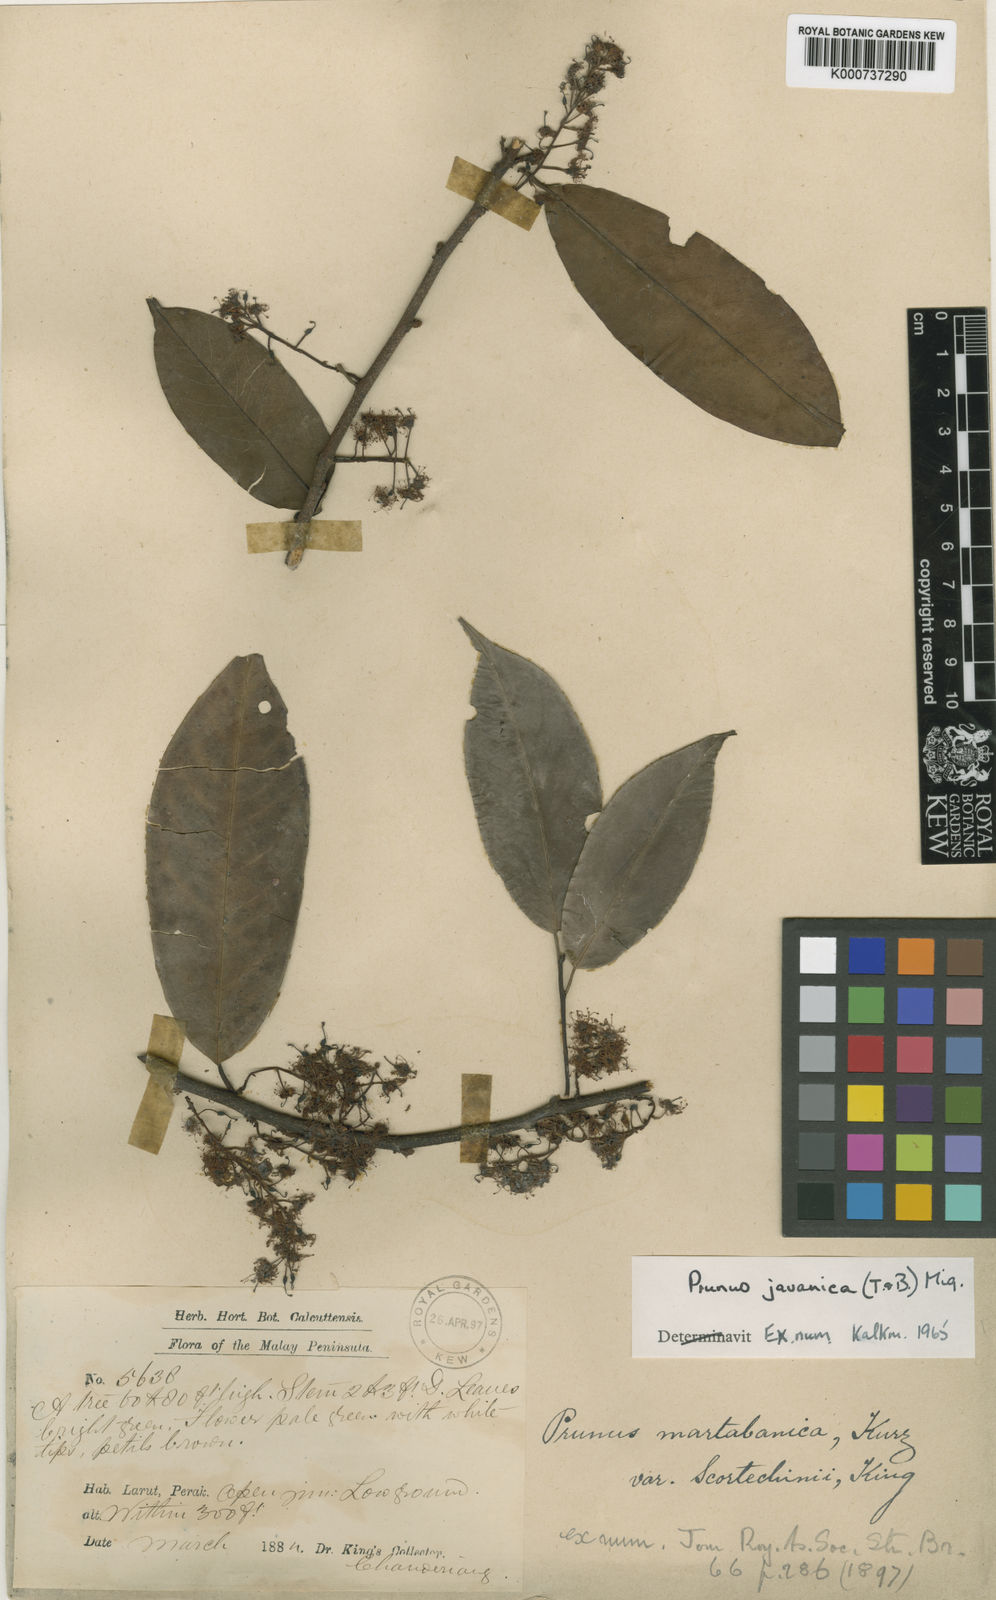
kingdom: Plantae
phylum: Tracheophyta
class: Magnoliopsida
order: Rosales
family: Rosaceae
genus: Prunus
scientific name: Prunus javanica
